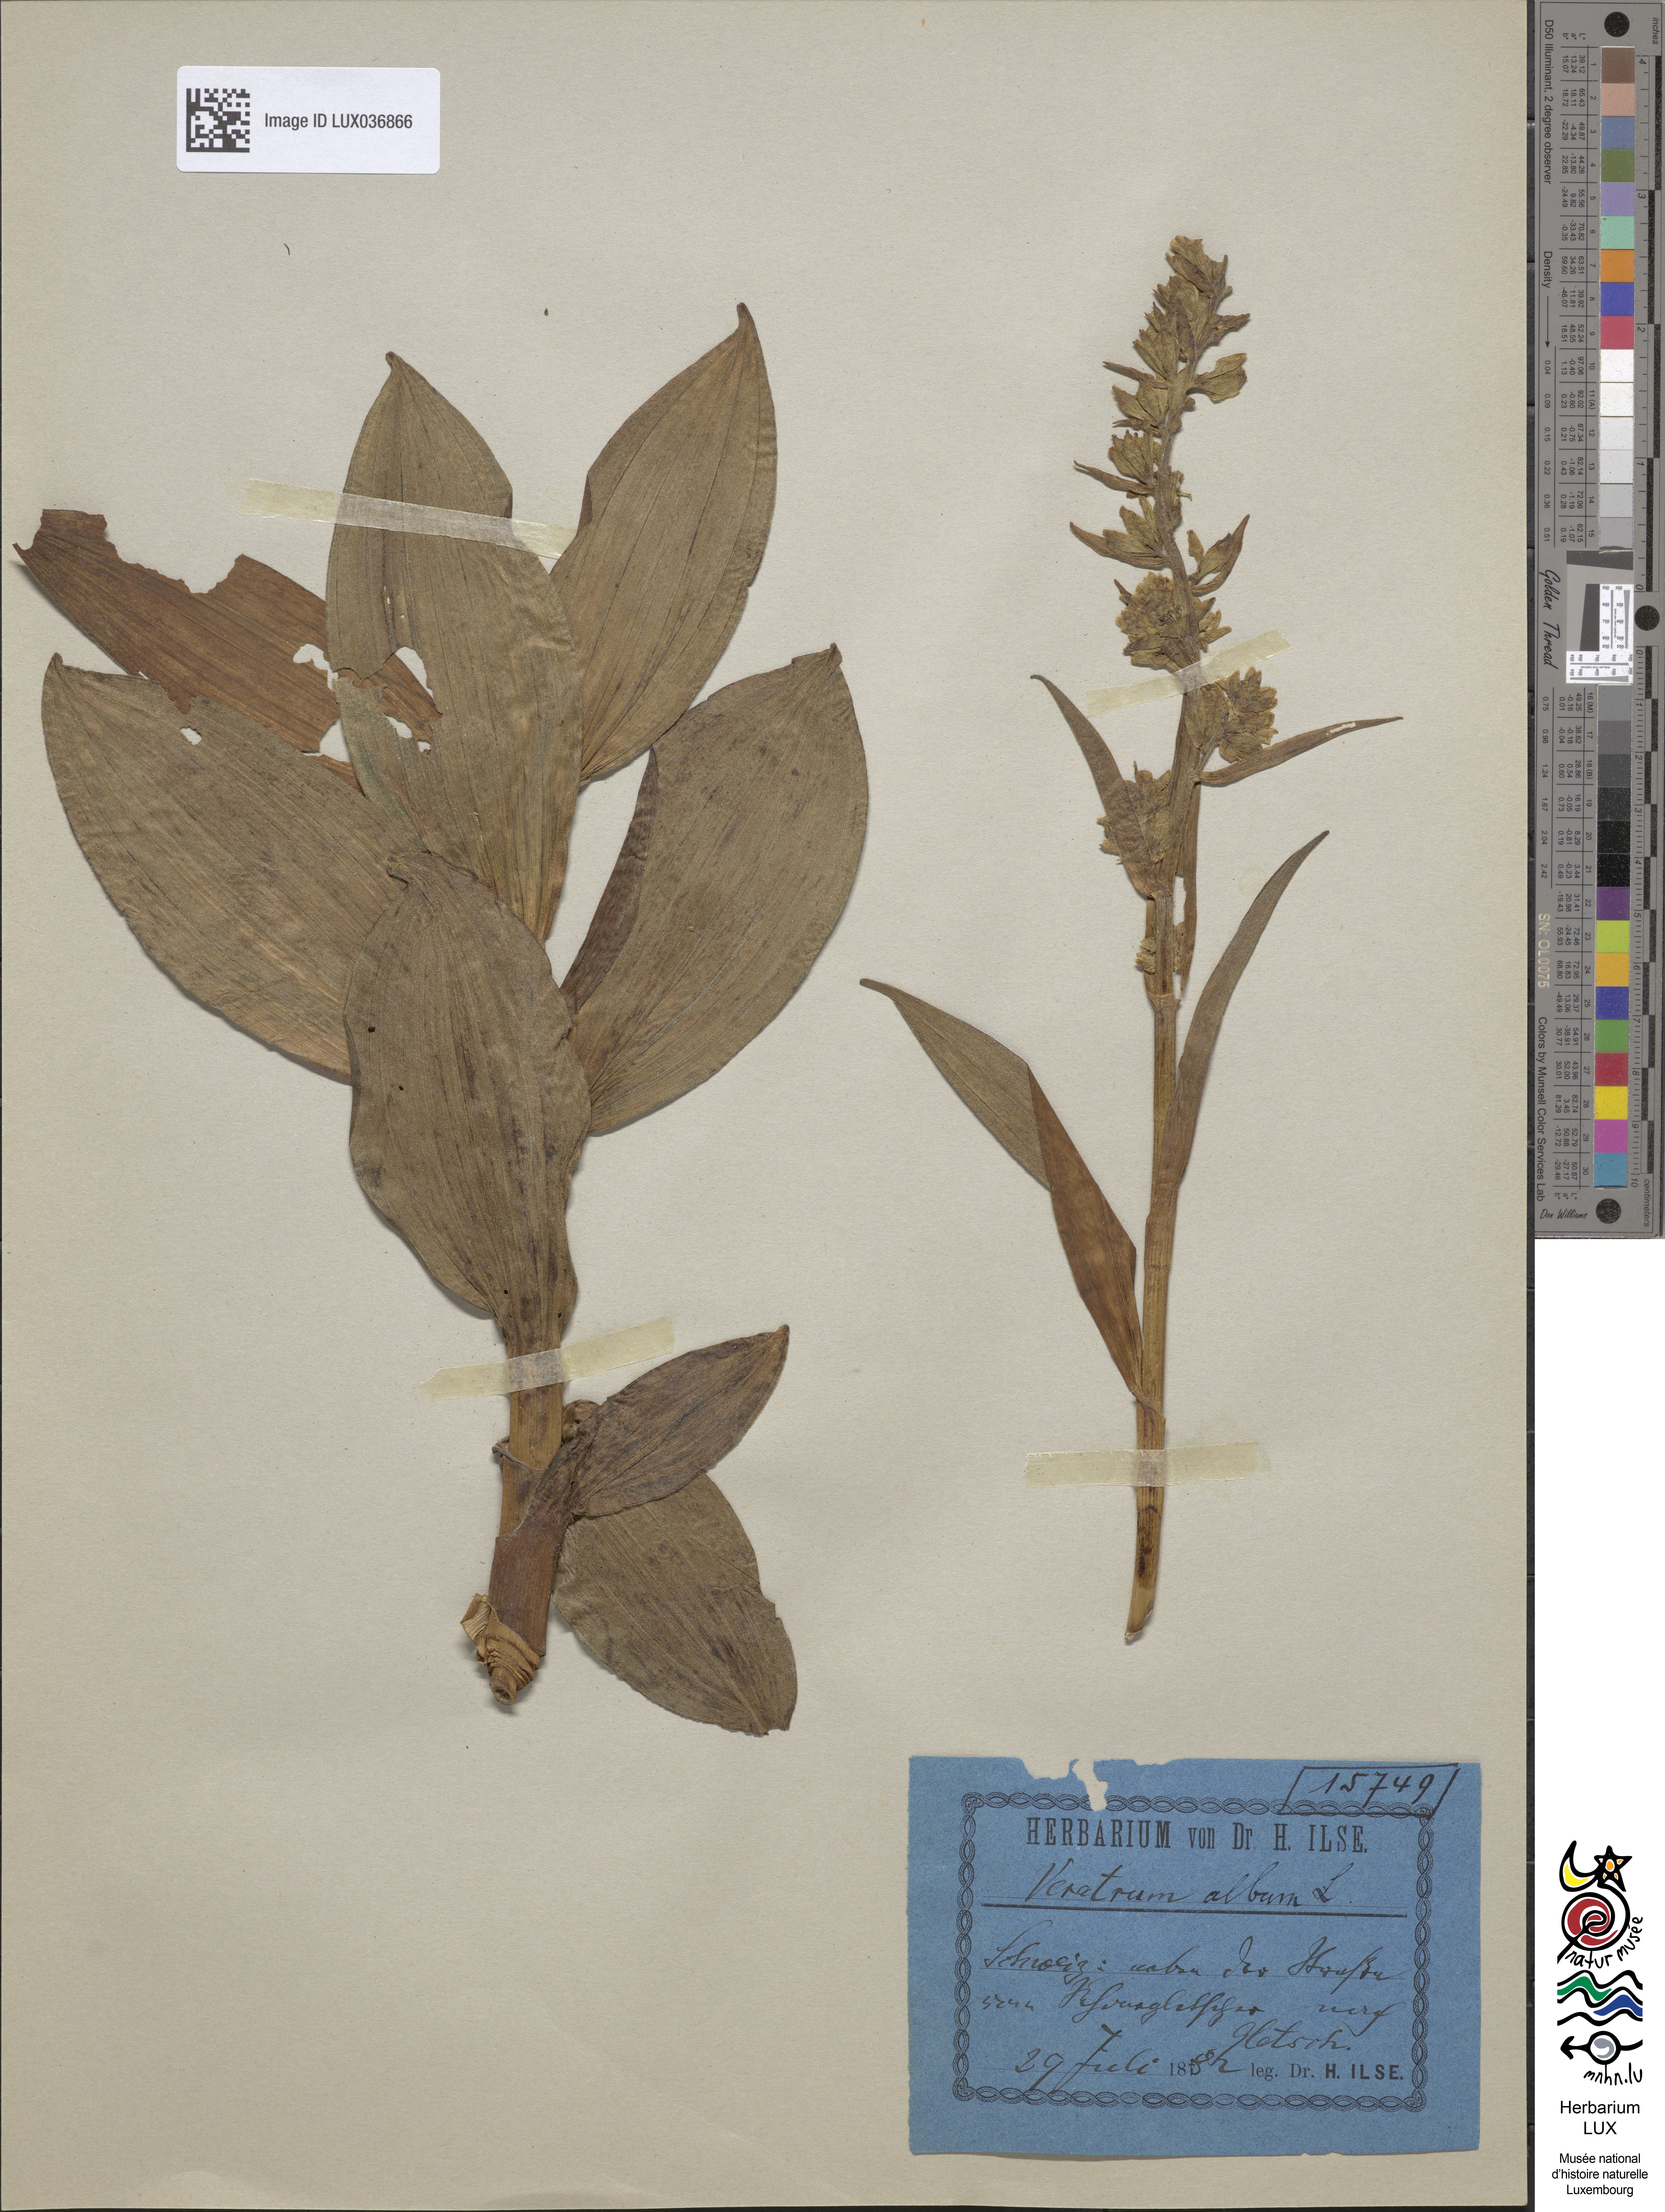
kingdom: Plantae
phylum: Tracheophyta
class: Liliopsida
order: Liliales
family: Melanthiaceae
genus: Veratrum
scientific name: Veratrum album
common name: White veratrum
